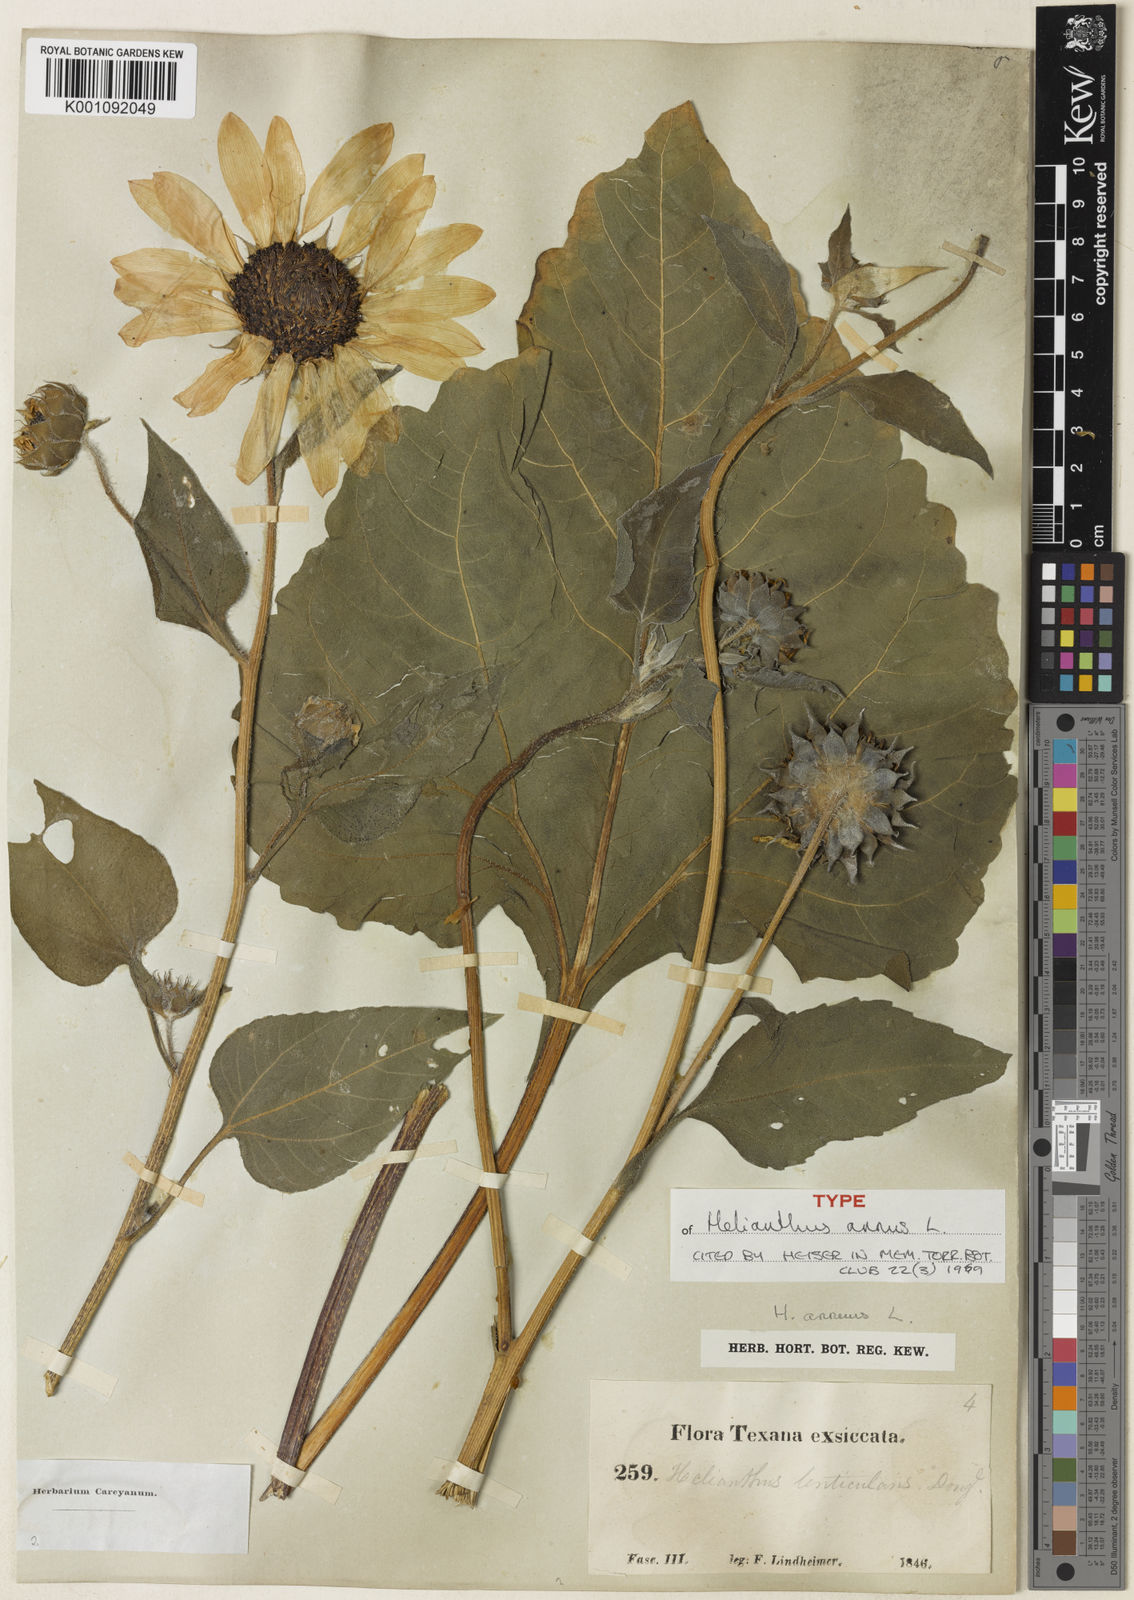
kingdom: Plantae
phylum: Tracheophyta
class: Magnoliopsida
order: Asterales
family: Asteraceae
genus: Helianthus
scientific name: Helianthus annuus
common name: Sunflower
